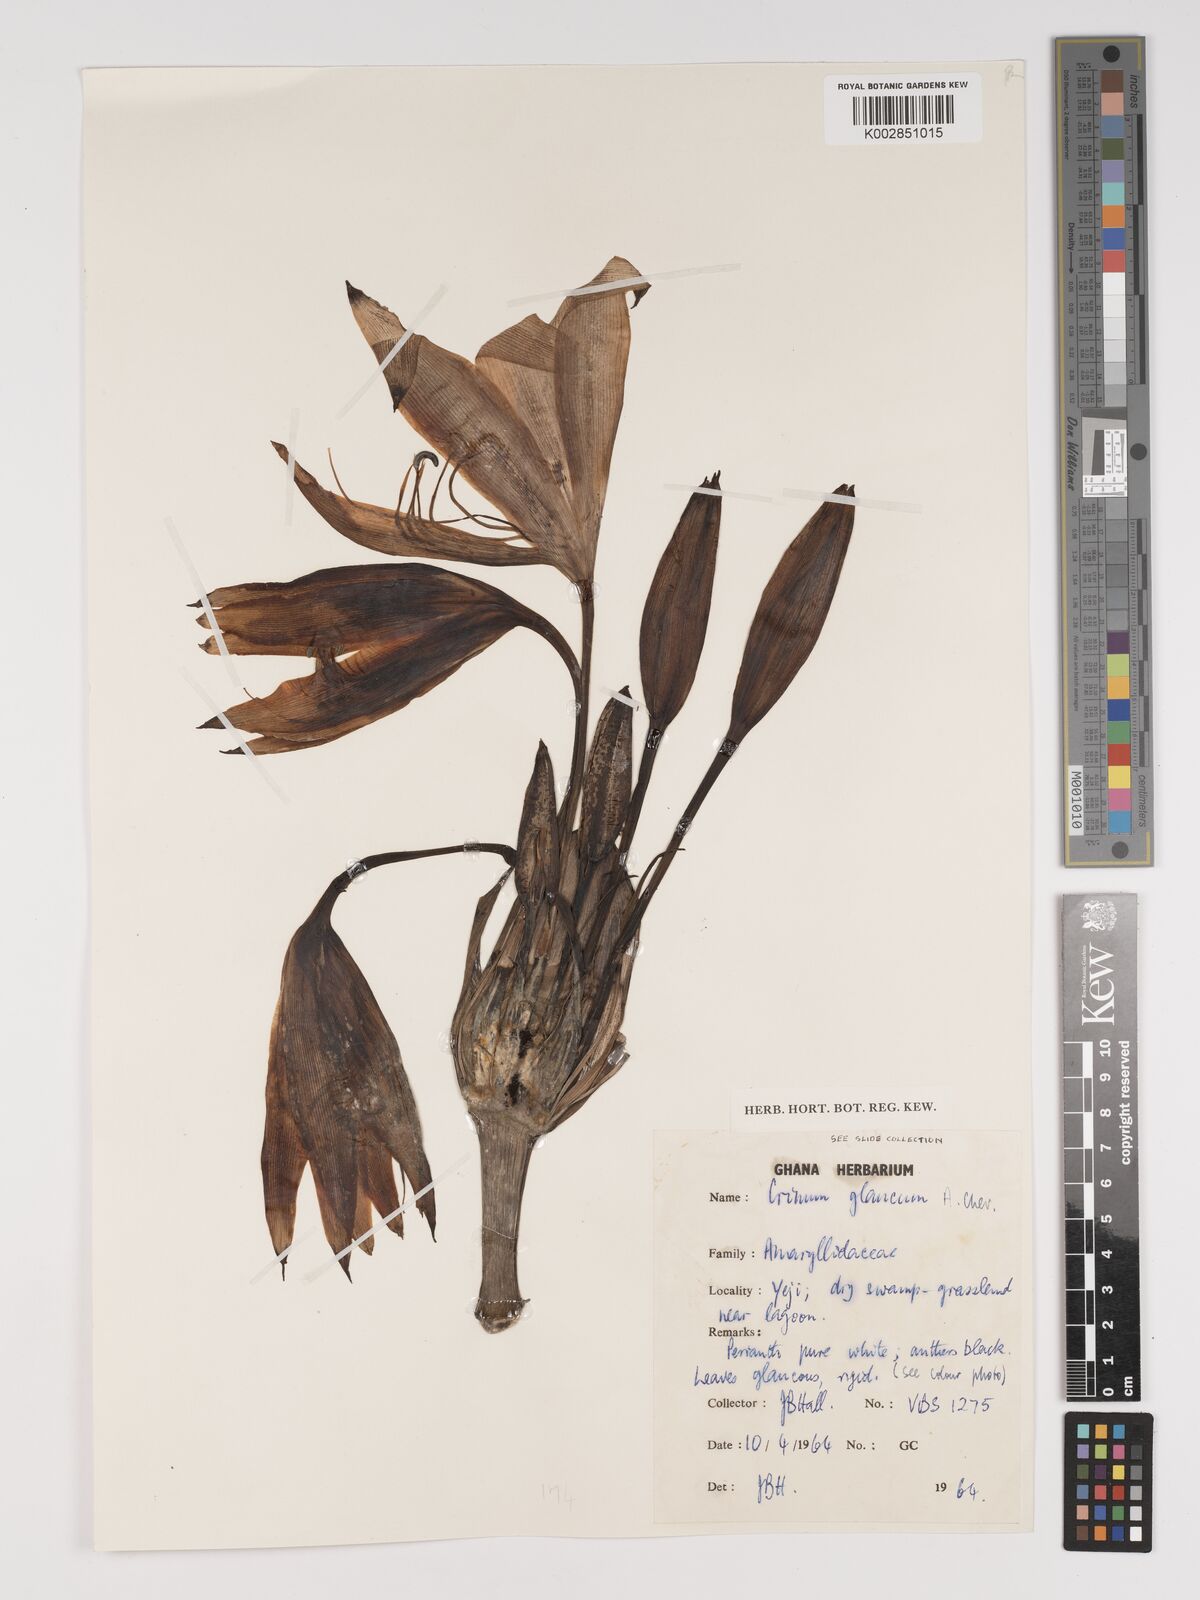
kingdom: Plantae
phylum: Tracheophyta
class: Liliopsida
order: Asparagales
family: Amaryllidaceae
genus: Crinum
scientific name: Crinum glaucum
